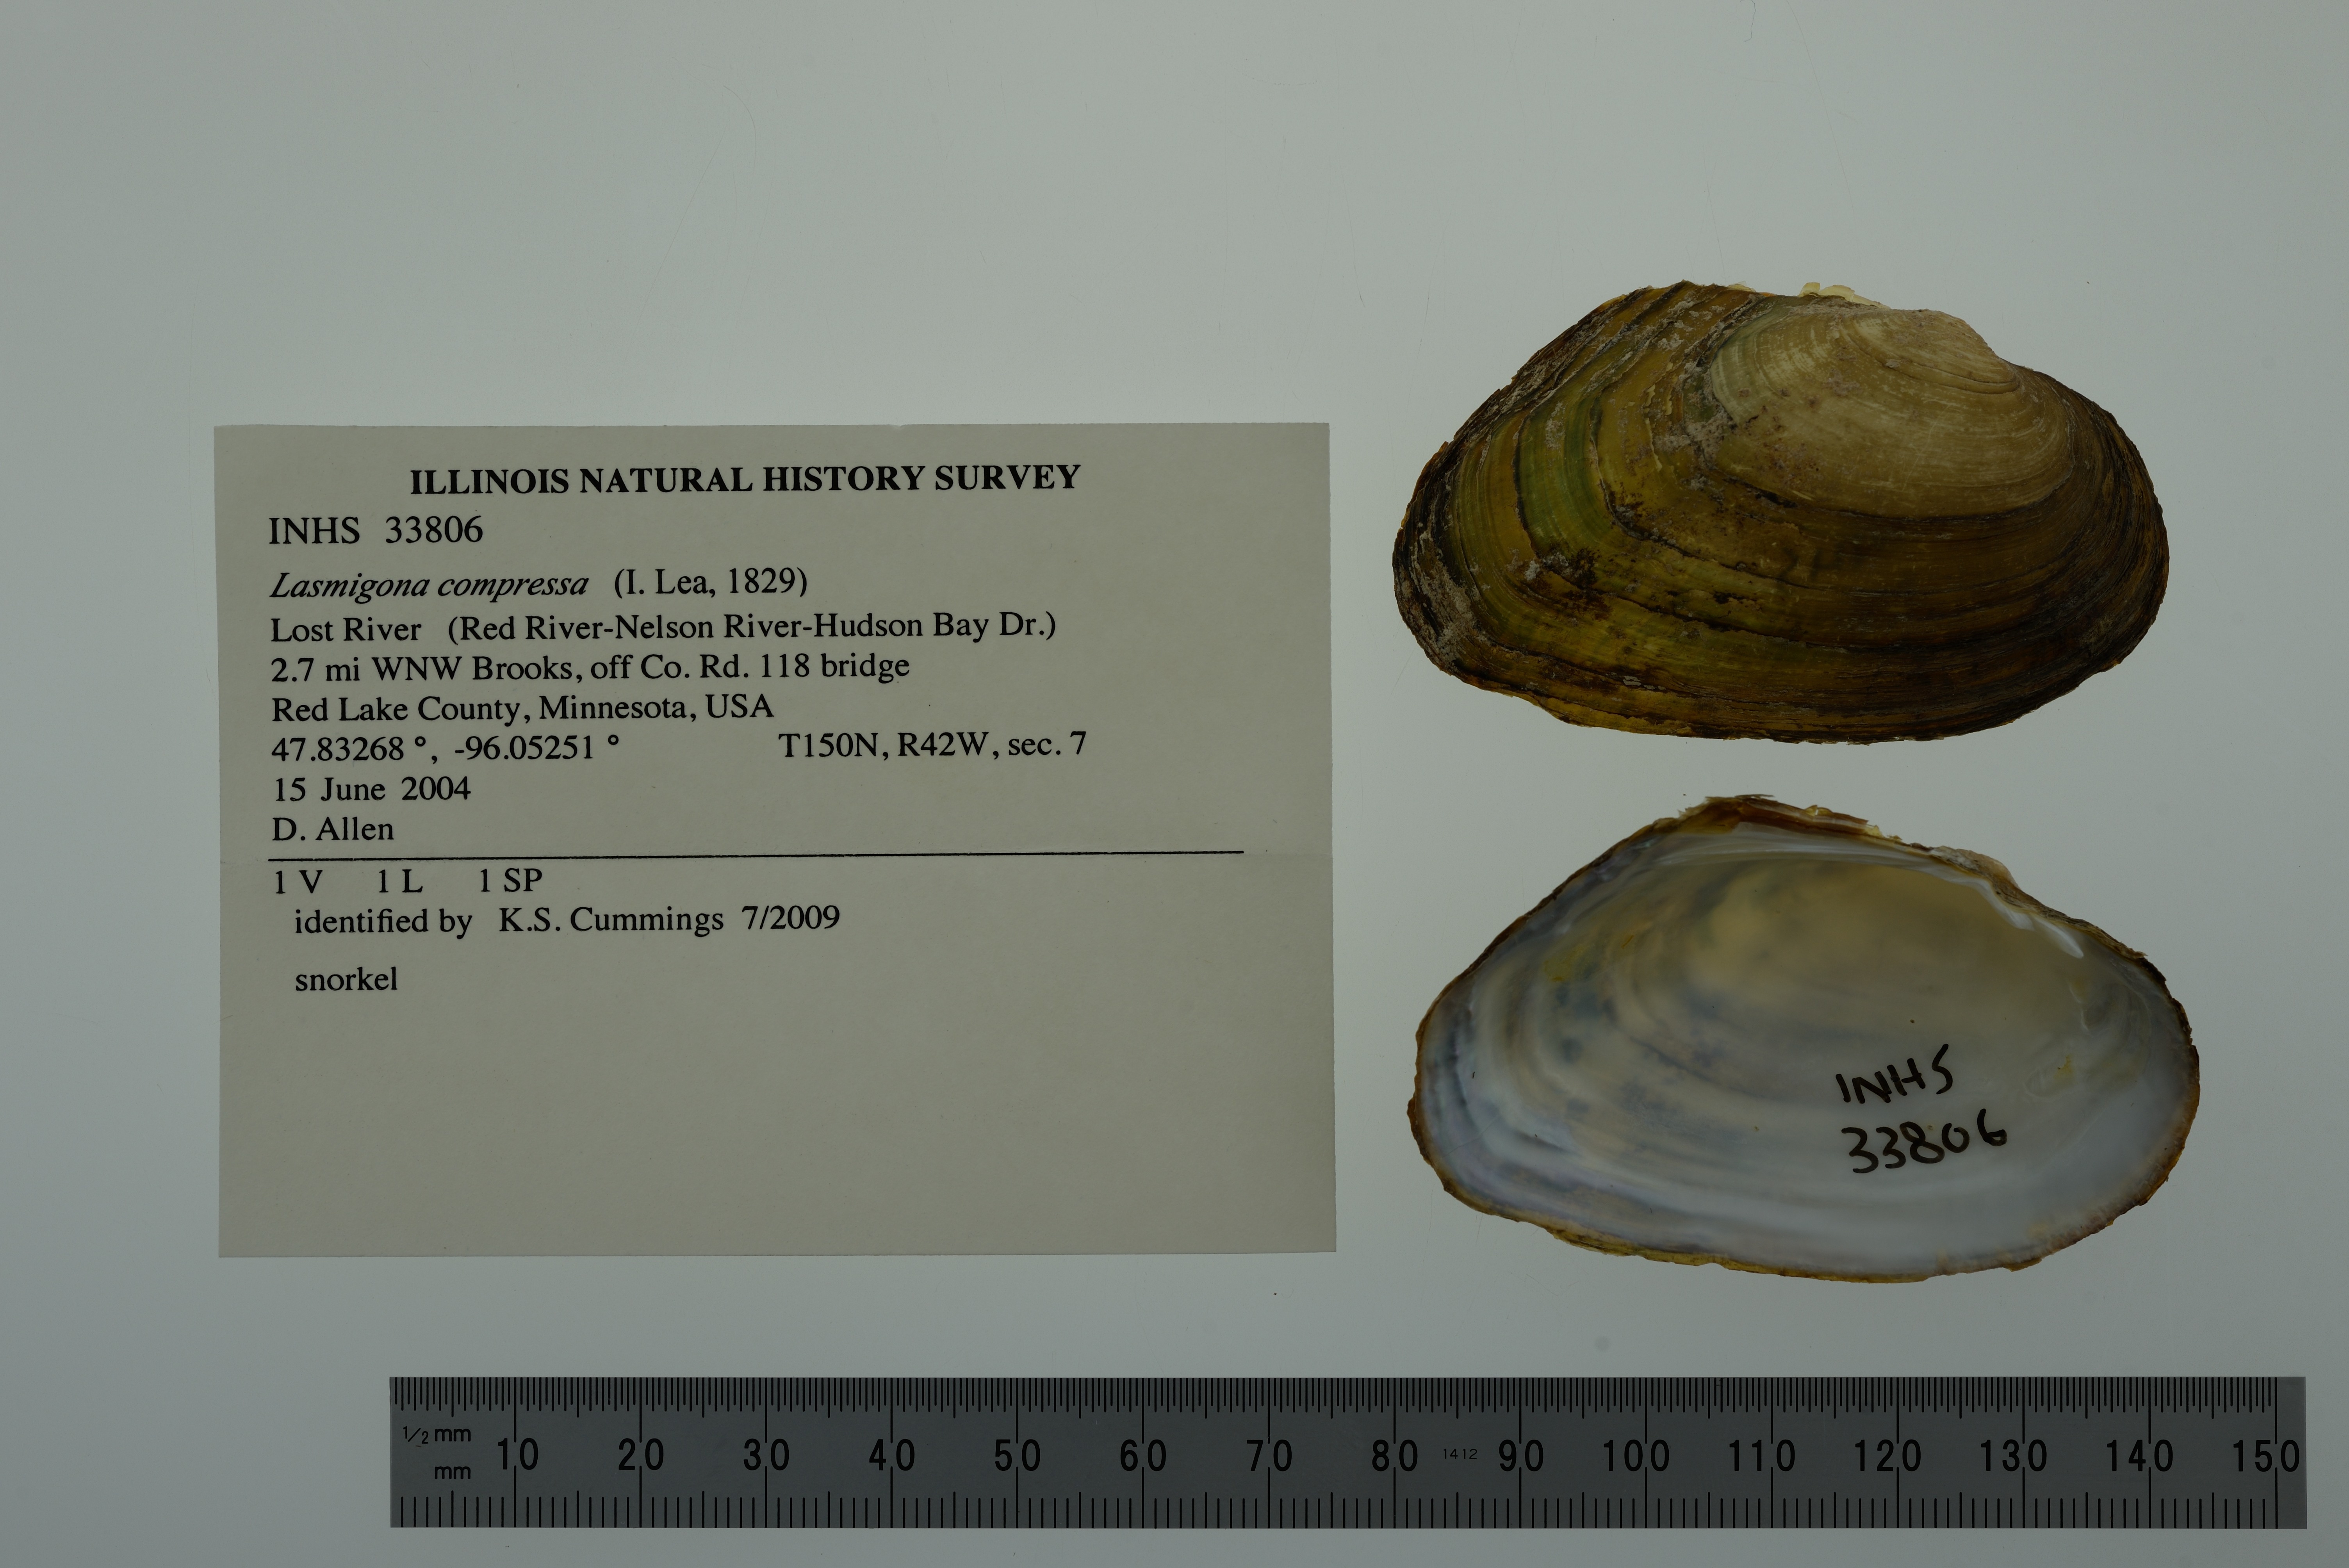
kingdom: Animalia
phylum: Mollusca
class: Bivalvia
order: Unionida
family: Unionidae
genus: Lasmigona
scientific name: Lasmigona compressa
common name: Creek heelsplitter
